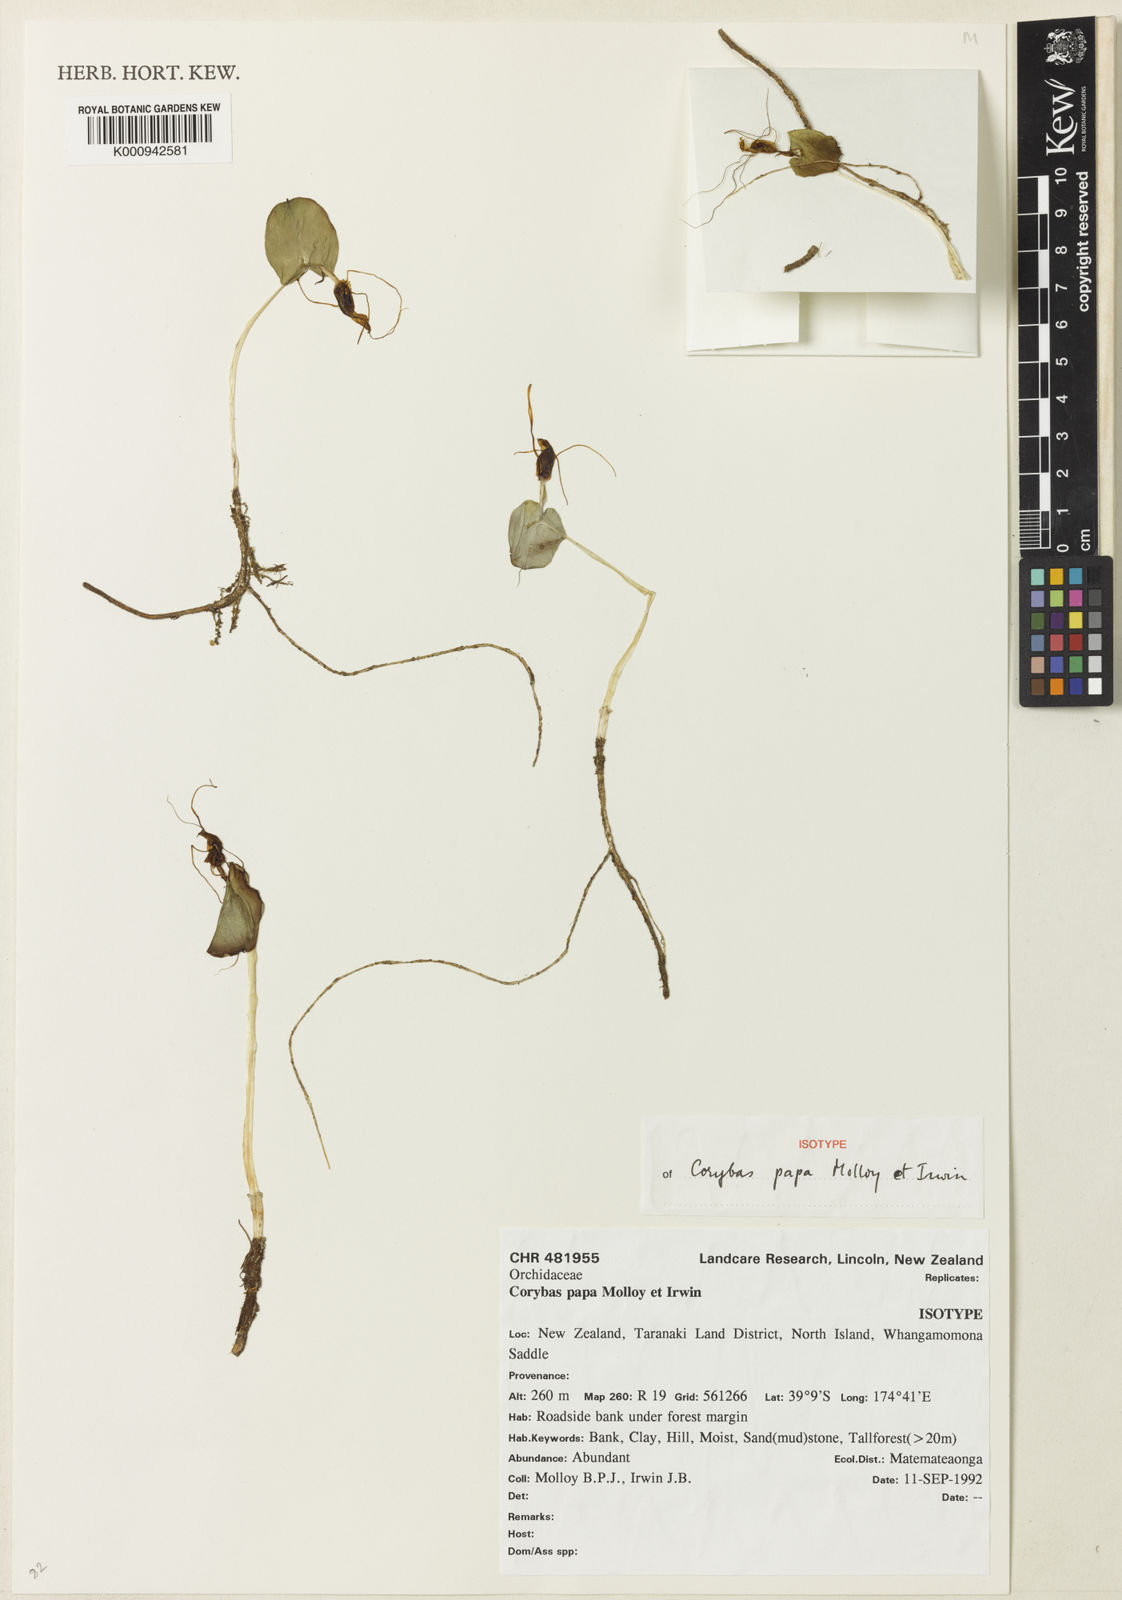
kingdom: Plantae
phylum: Tracheophyta
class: Liliopsida
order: Asparagales
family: Orchidaceae
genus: Corybas
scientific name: Corybas papa
